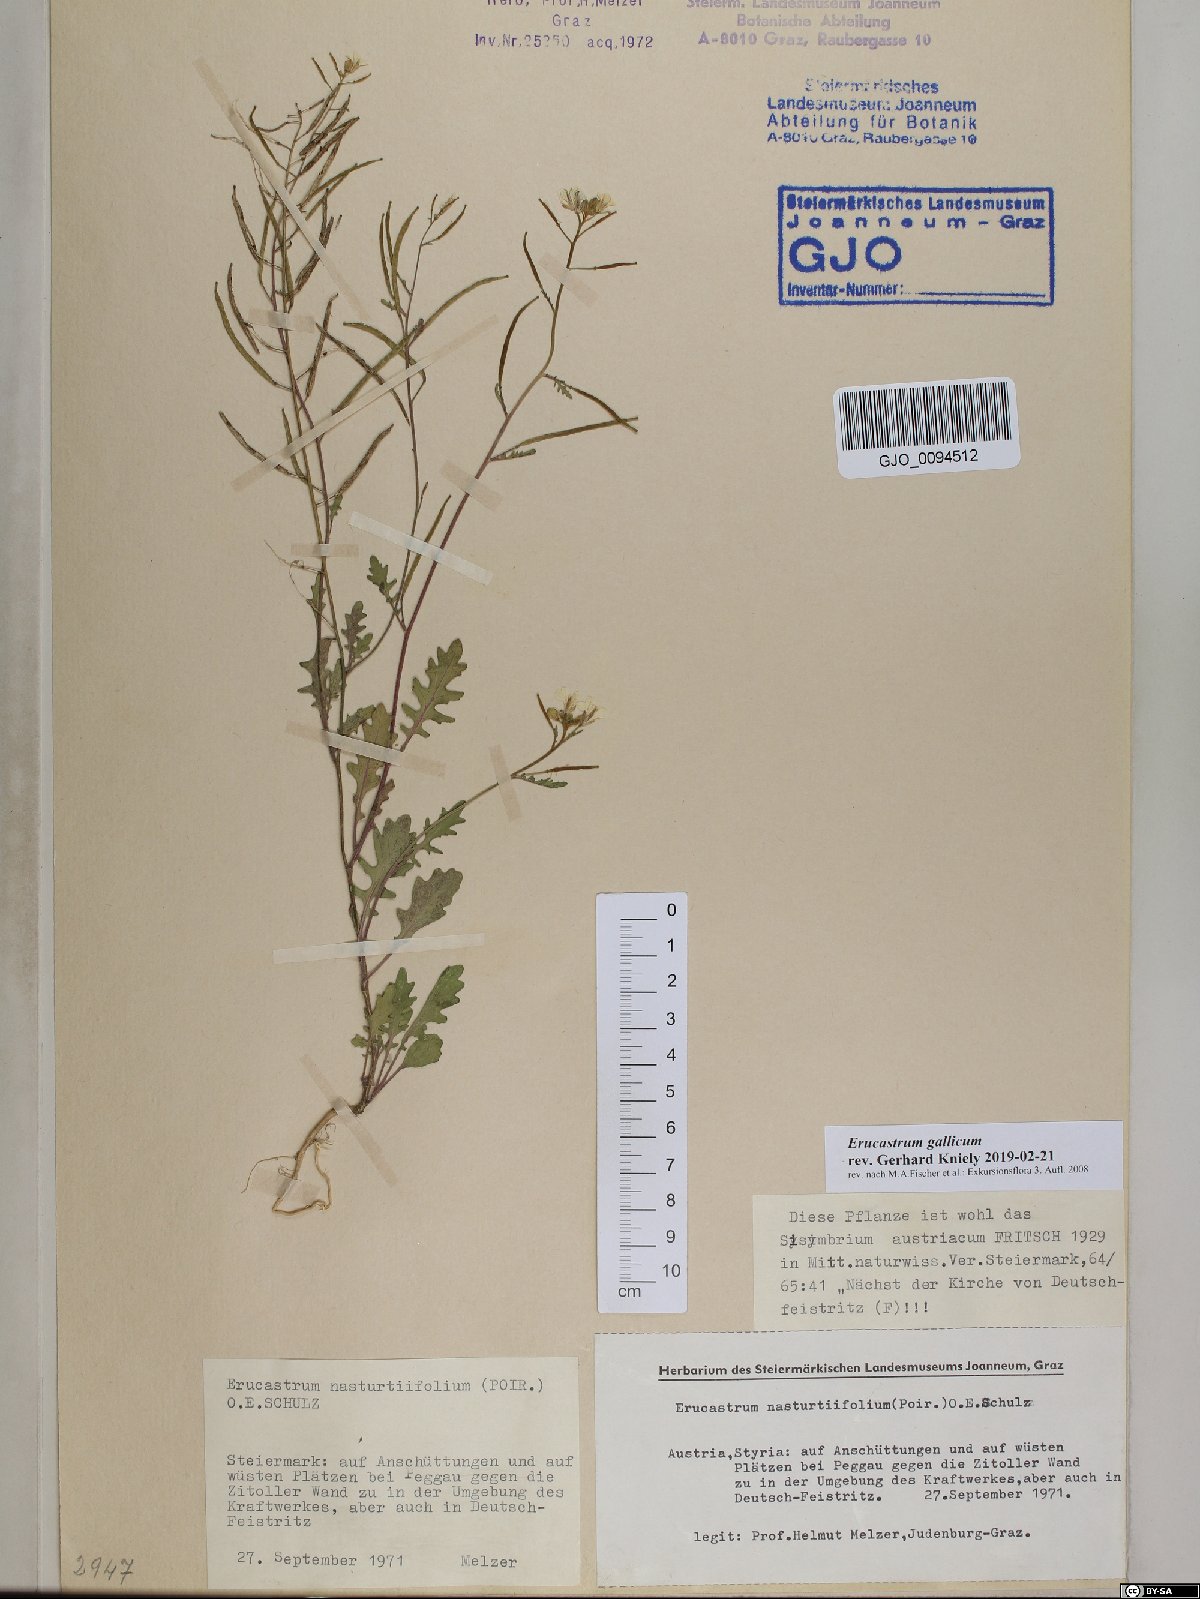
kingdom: Plantae
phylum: Tracheophyta
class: Magnoliopsida
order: Brassicales
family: Brassicaceae
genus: Erucastrum
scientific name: Erucastrum gallicum
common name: Hairy rocket
